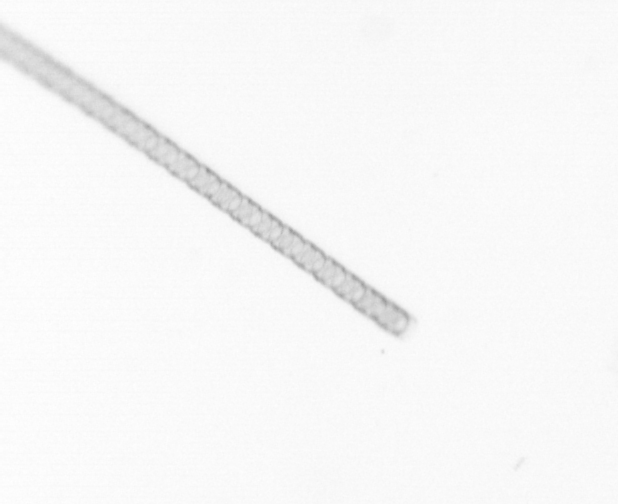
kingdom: Chromista
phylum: Ochrophyta
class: Bacillariophyceae
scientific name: Bacillariophyceae
